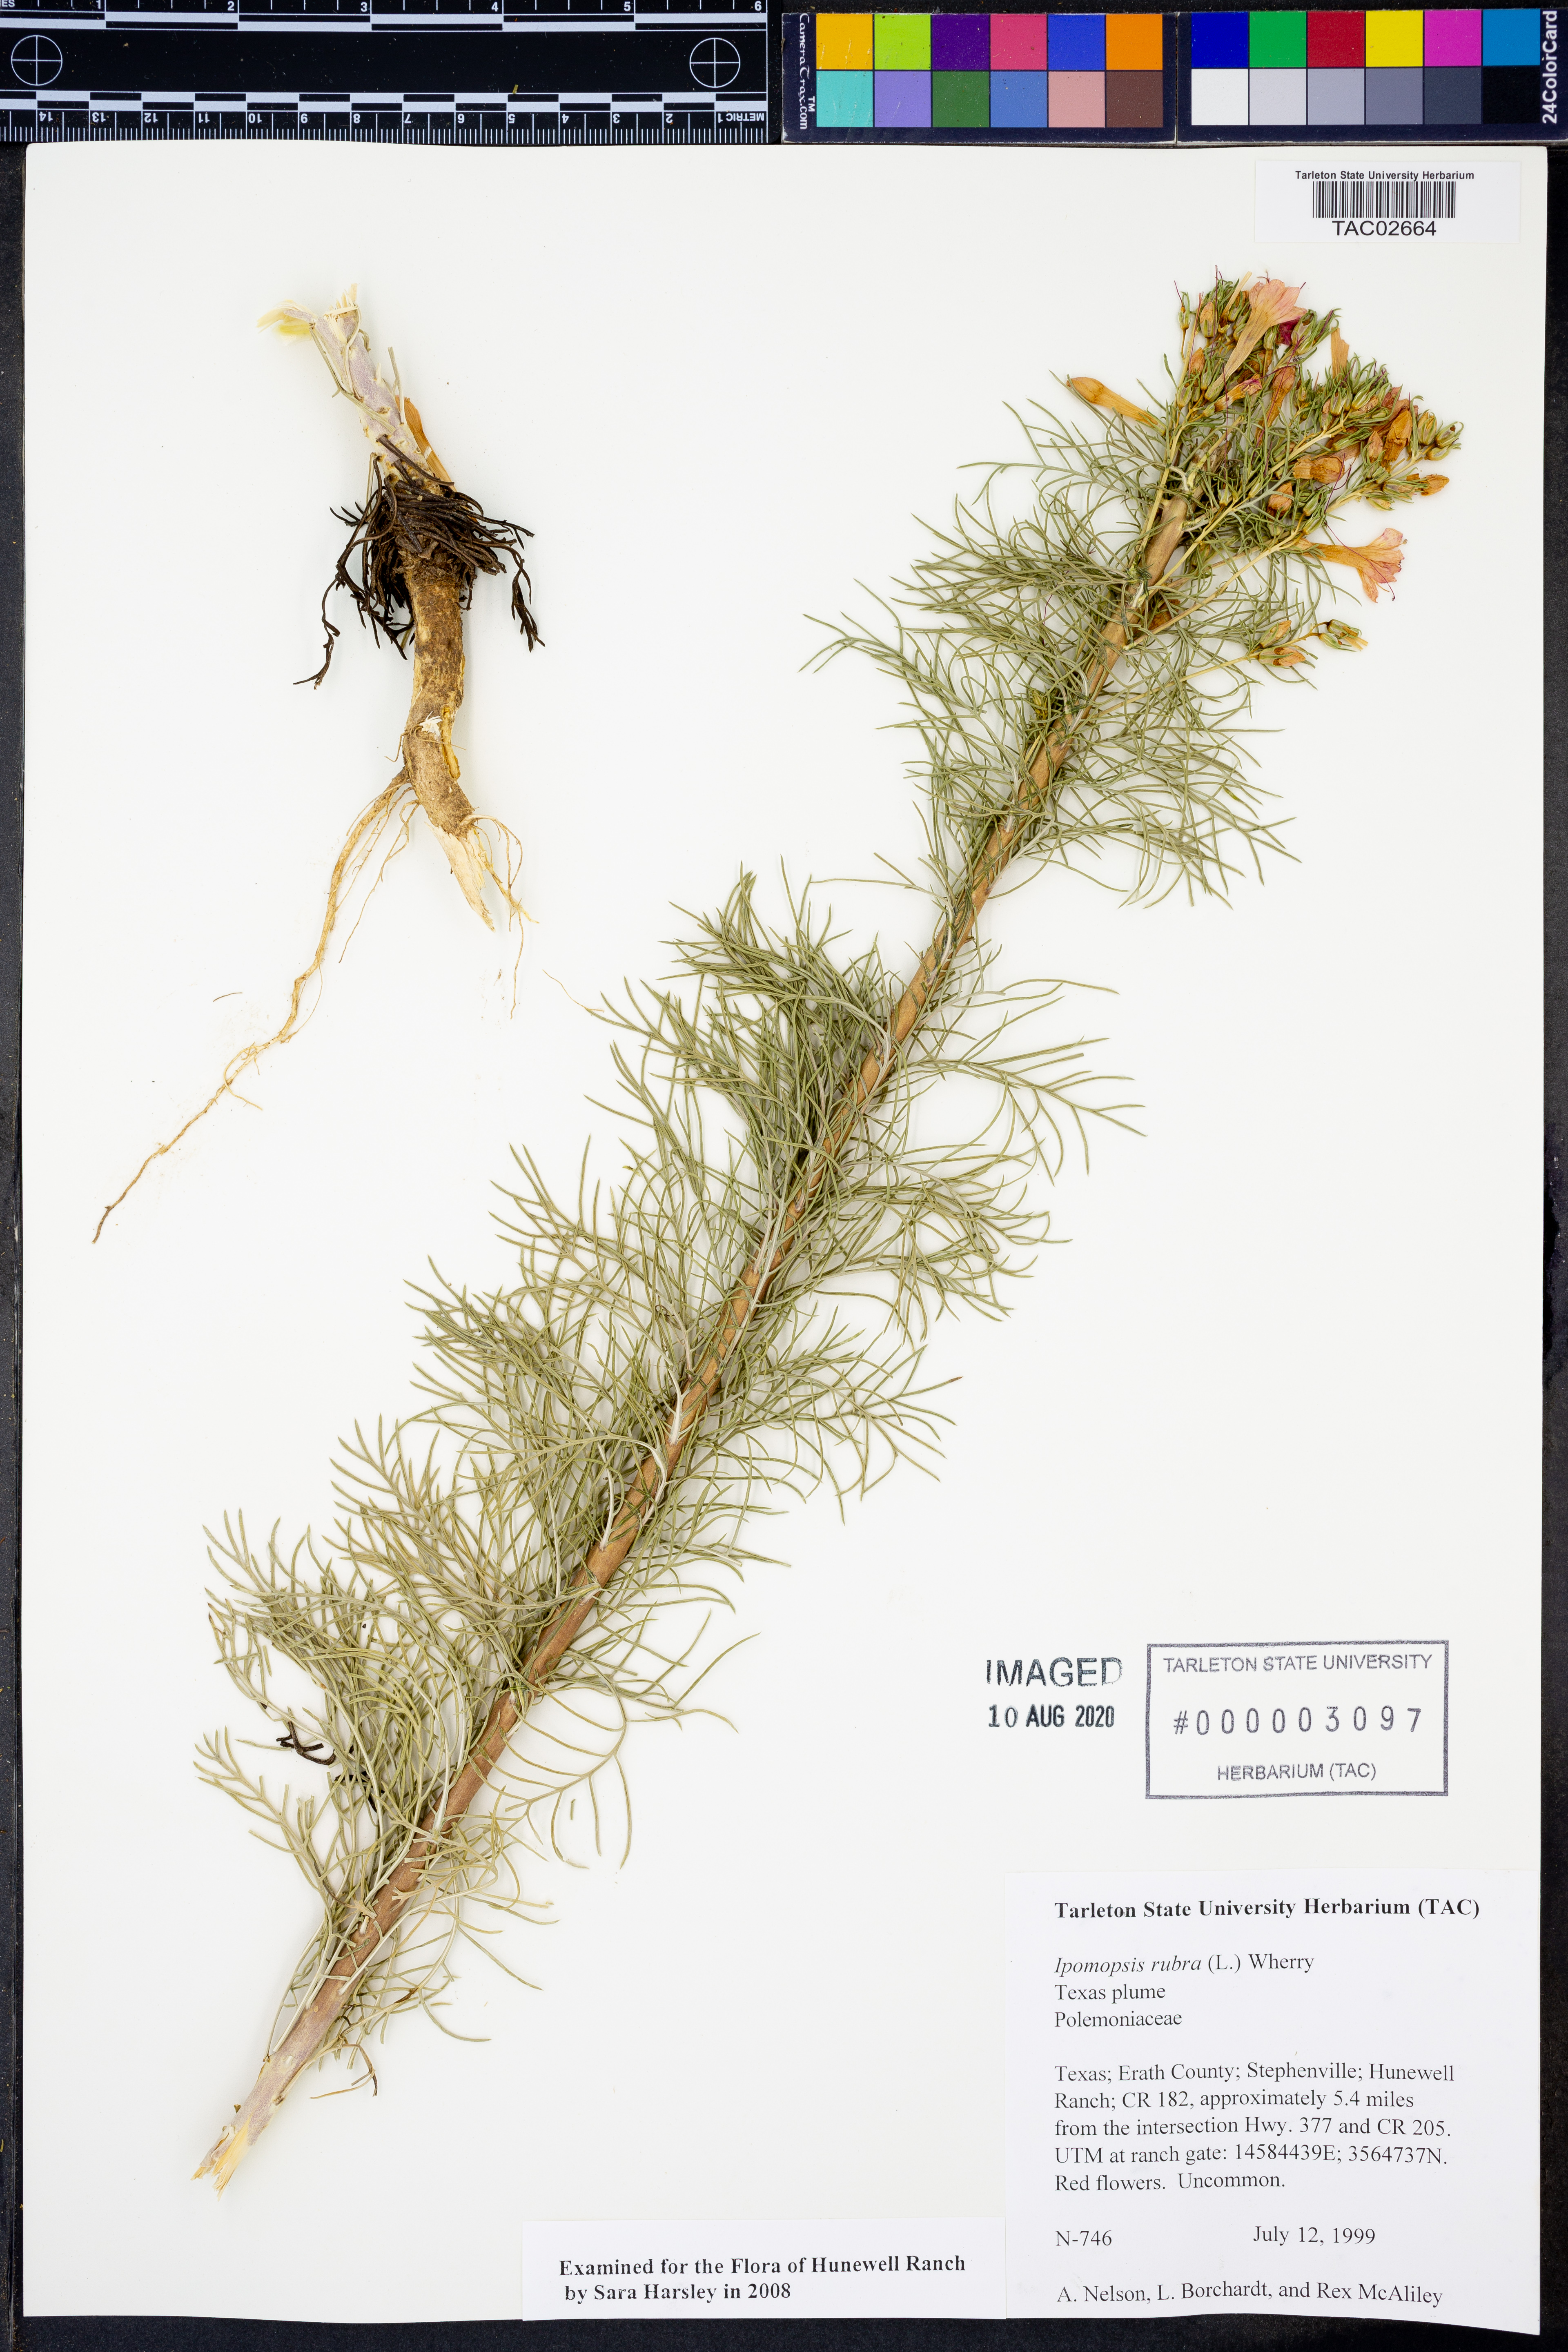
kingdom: Plantae
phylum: Tracheophyta
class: Magnoliopsida
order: Ericales
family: Polemoniaceae
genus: Ipomopsis
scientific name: Ipomopsis rubra
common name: Skyrocket
